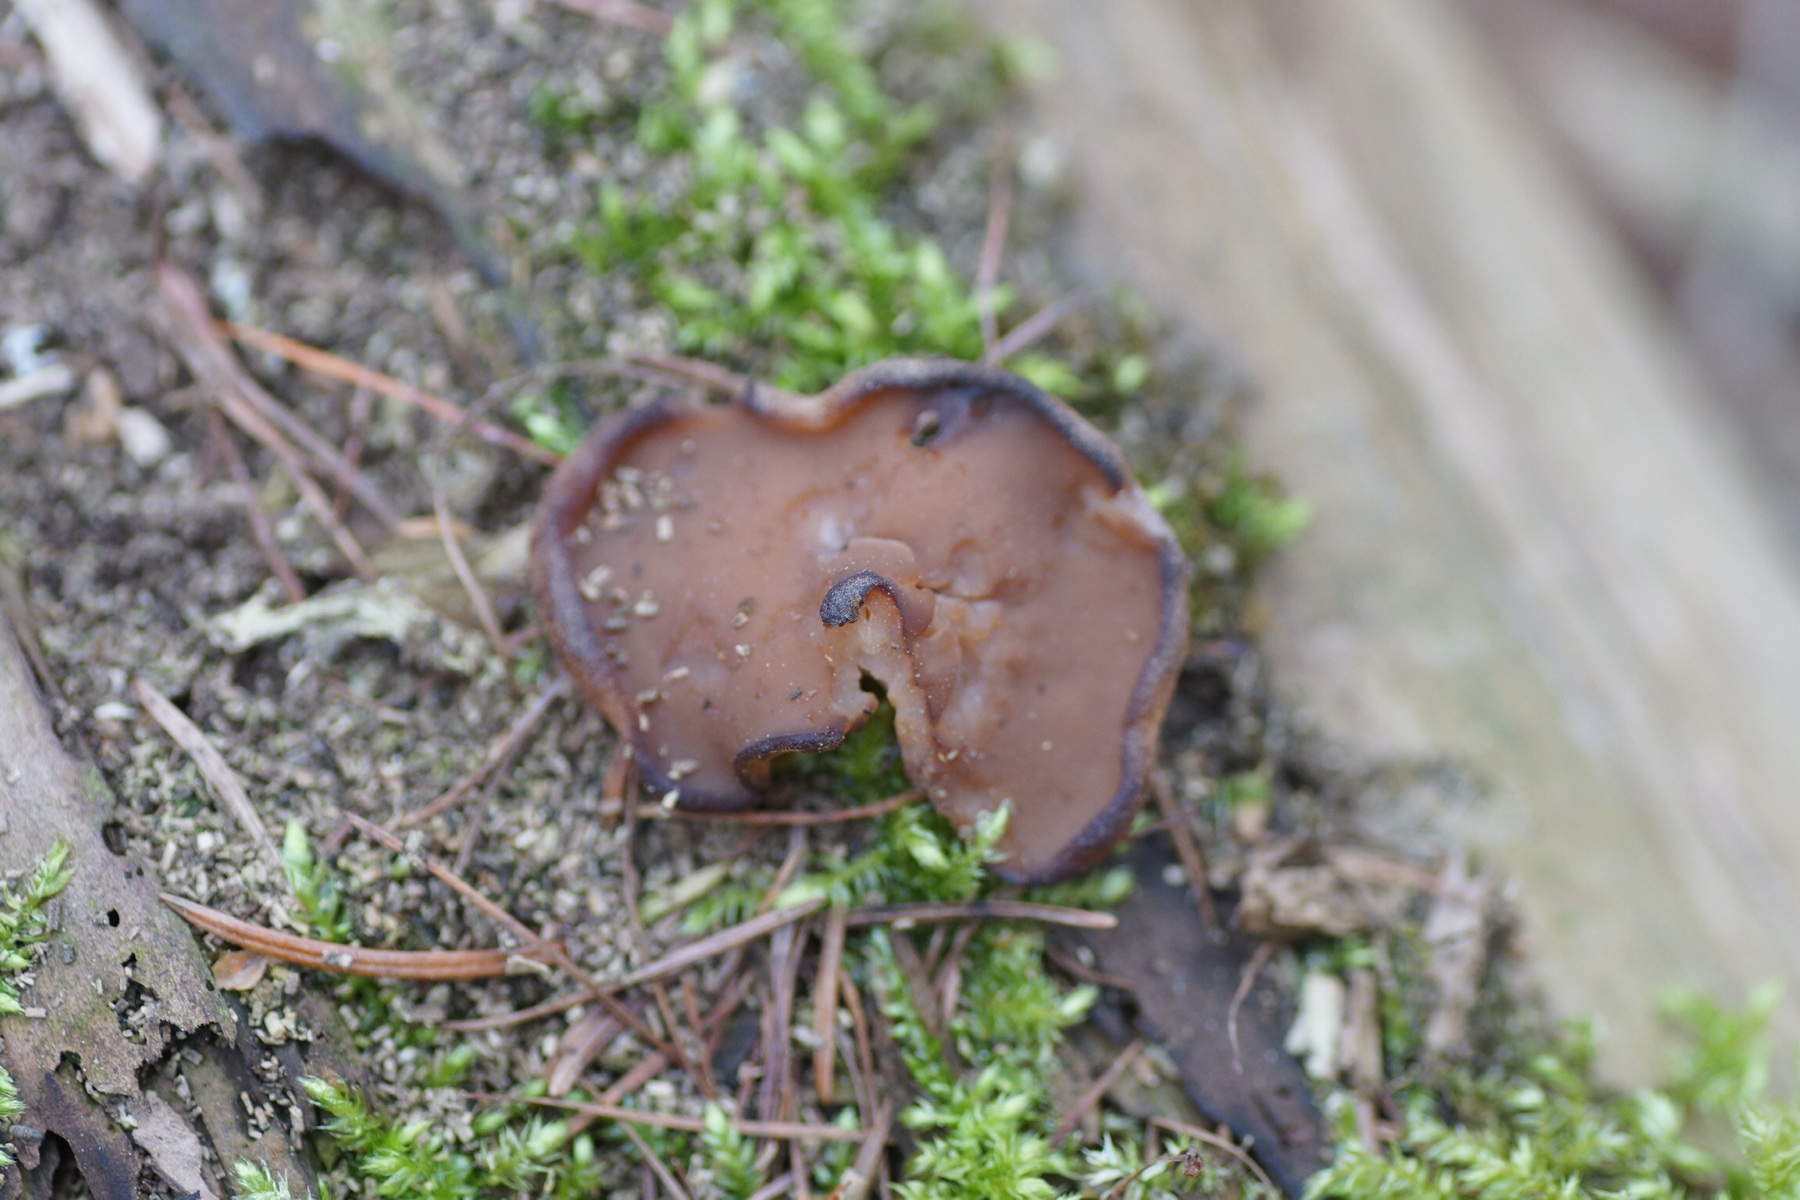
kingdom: Fungi
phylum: Ascomycota
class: Pezizomycetes
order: Pezizales
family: Discinaceae
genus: Discina
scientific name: Discina ancilis
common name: udbredt stenmorkel
